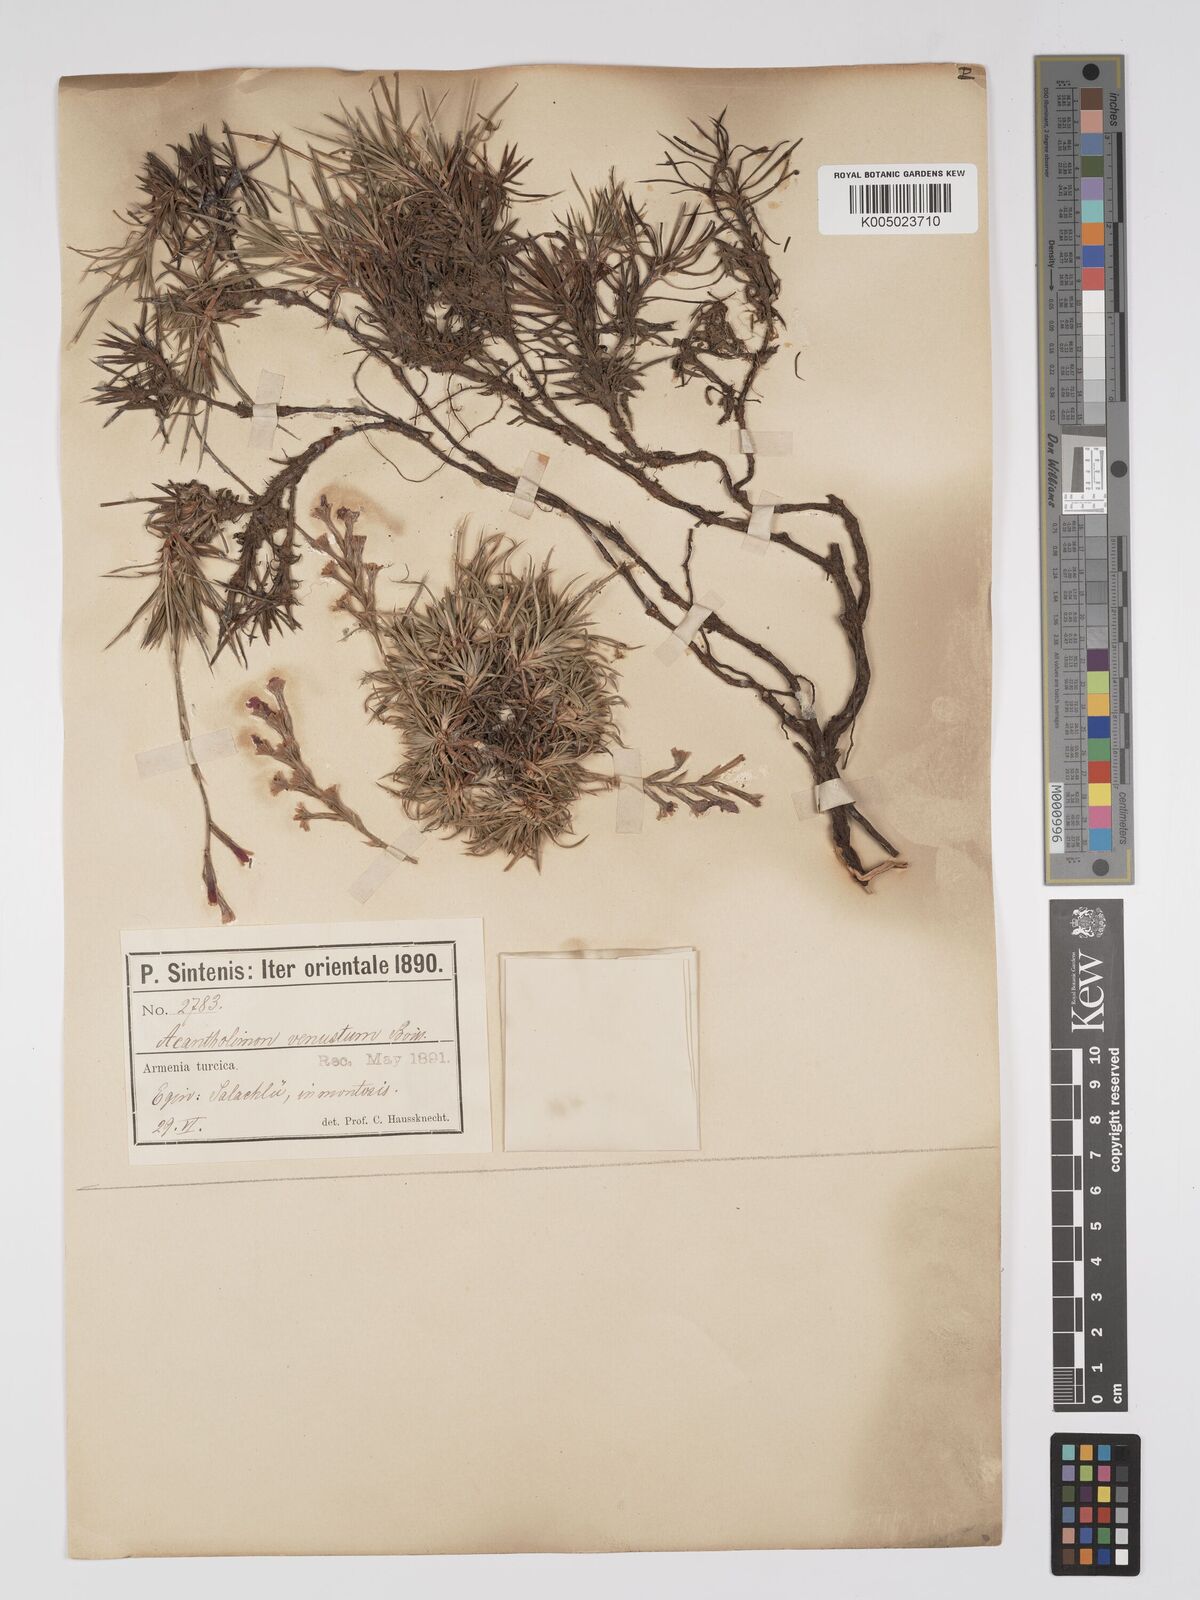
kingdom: Plantae
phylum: Tracheophyta
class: Magnoliopsida
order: Caryophyllales
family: Plumbaginaceae
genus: Acantholimon
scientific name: Acantholimon venustum
